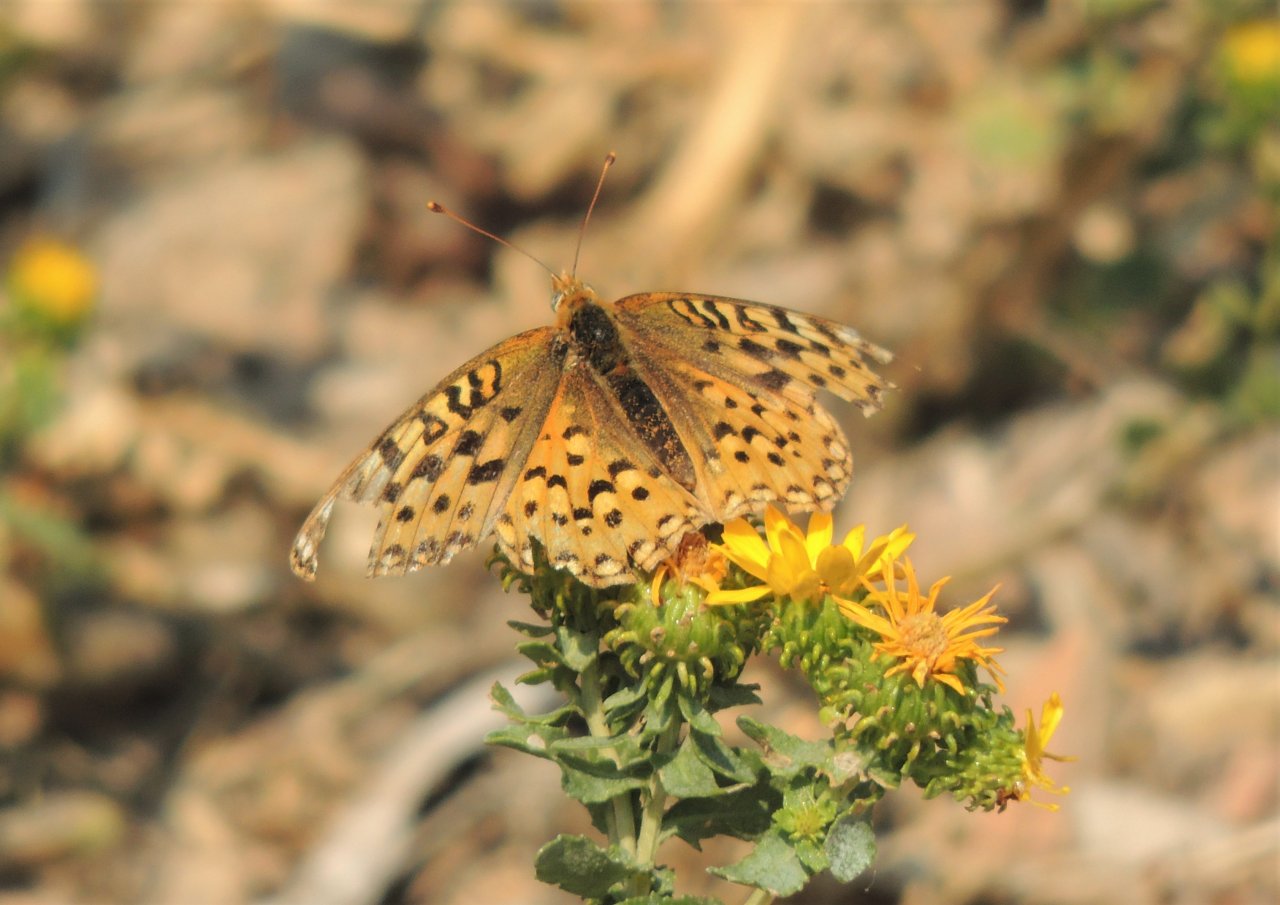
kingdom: Animalia
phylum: Arthropoda
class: Insecta
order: Lepidoptera
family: Nymphalidae
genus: Speyeria
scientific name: Speyeria
